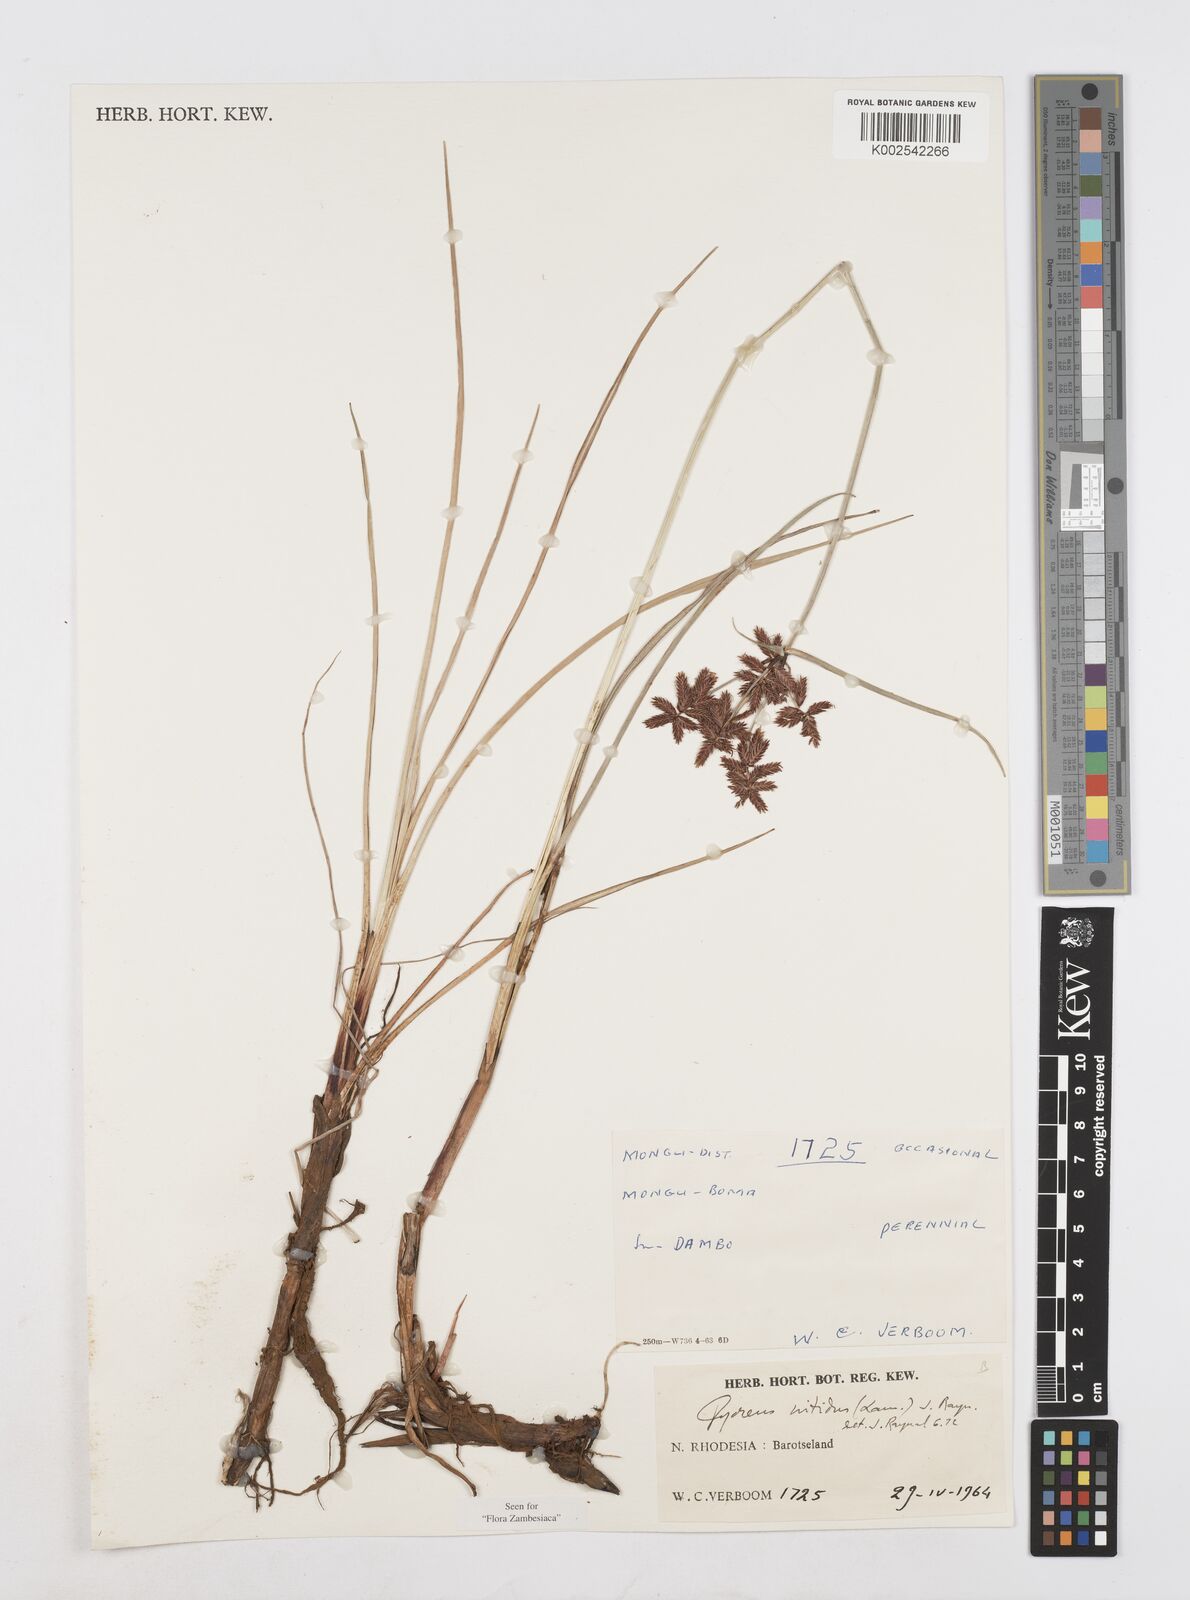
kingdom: Plantae
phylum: Tracheophyta
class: Liliopsida
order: Poales
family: Cyperaceae
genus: Cyperus
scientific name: Cyperus nitidus
